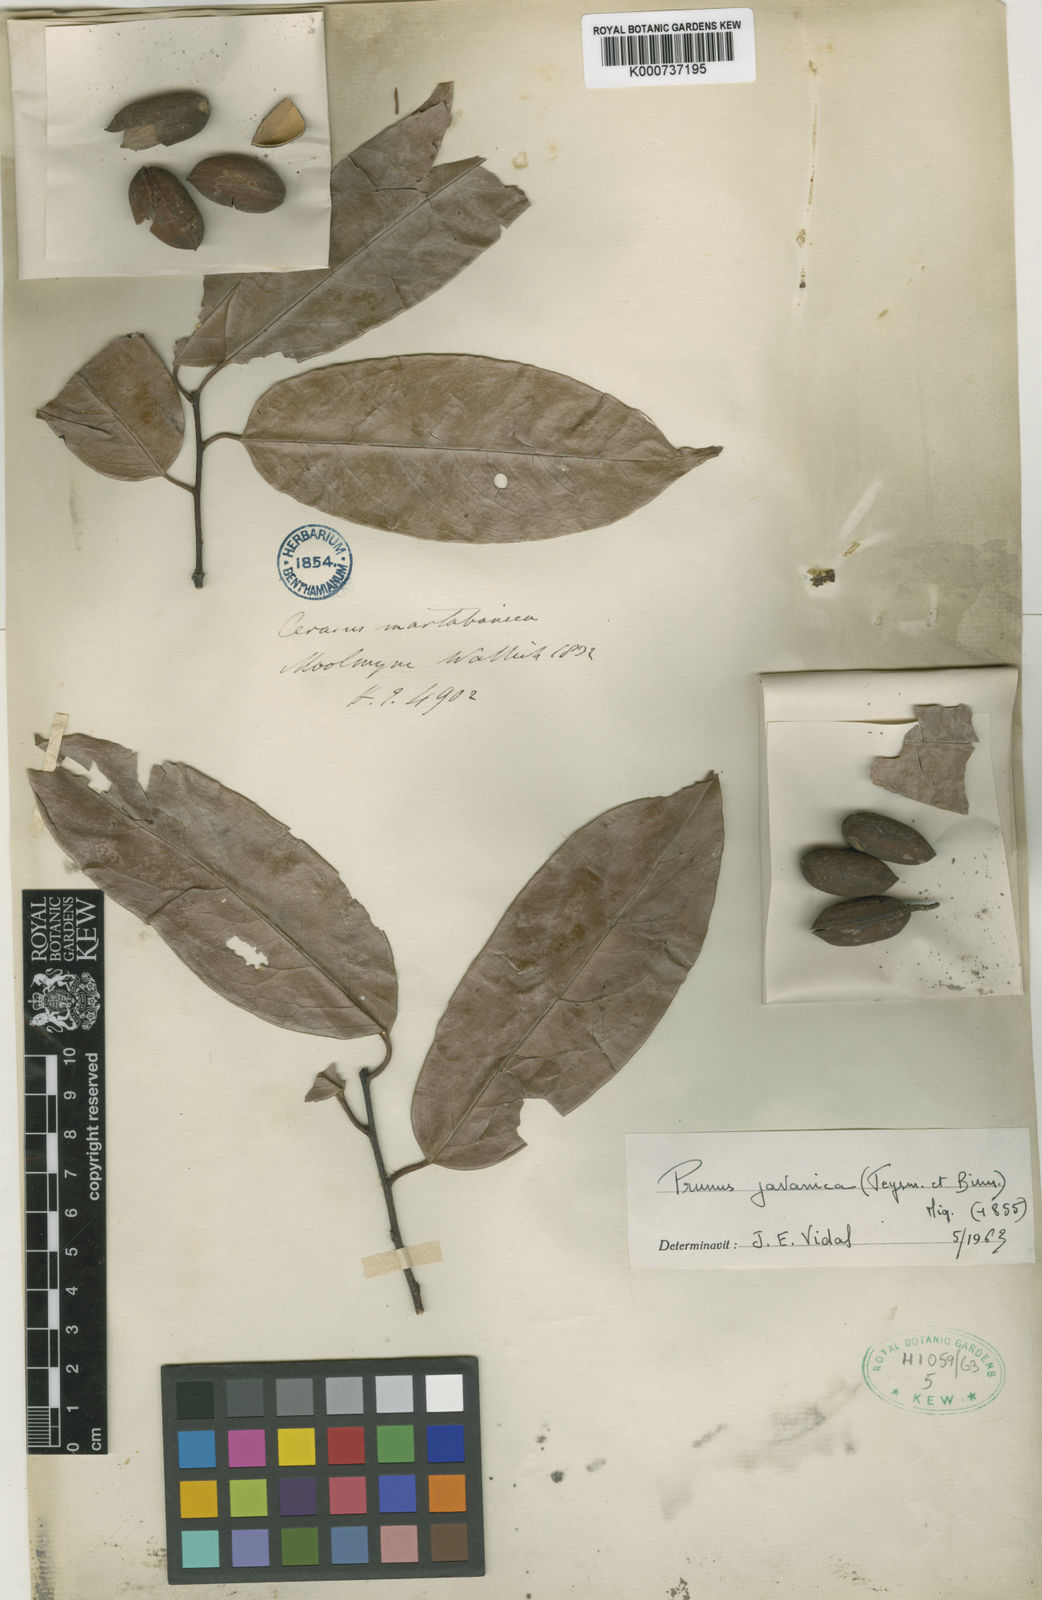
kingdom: Plantae
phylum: Tracheophyta
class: Magnoliopsida
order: Rosales
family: Rosaceae
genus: Prunus
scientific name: Prunus javanica
